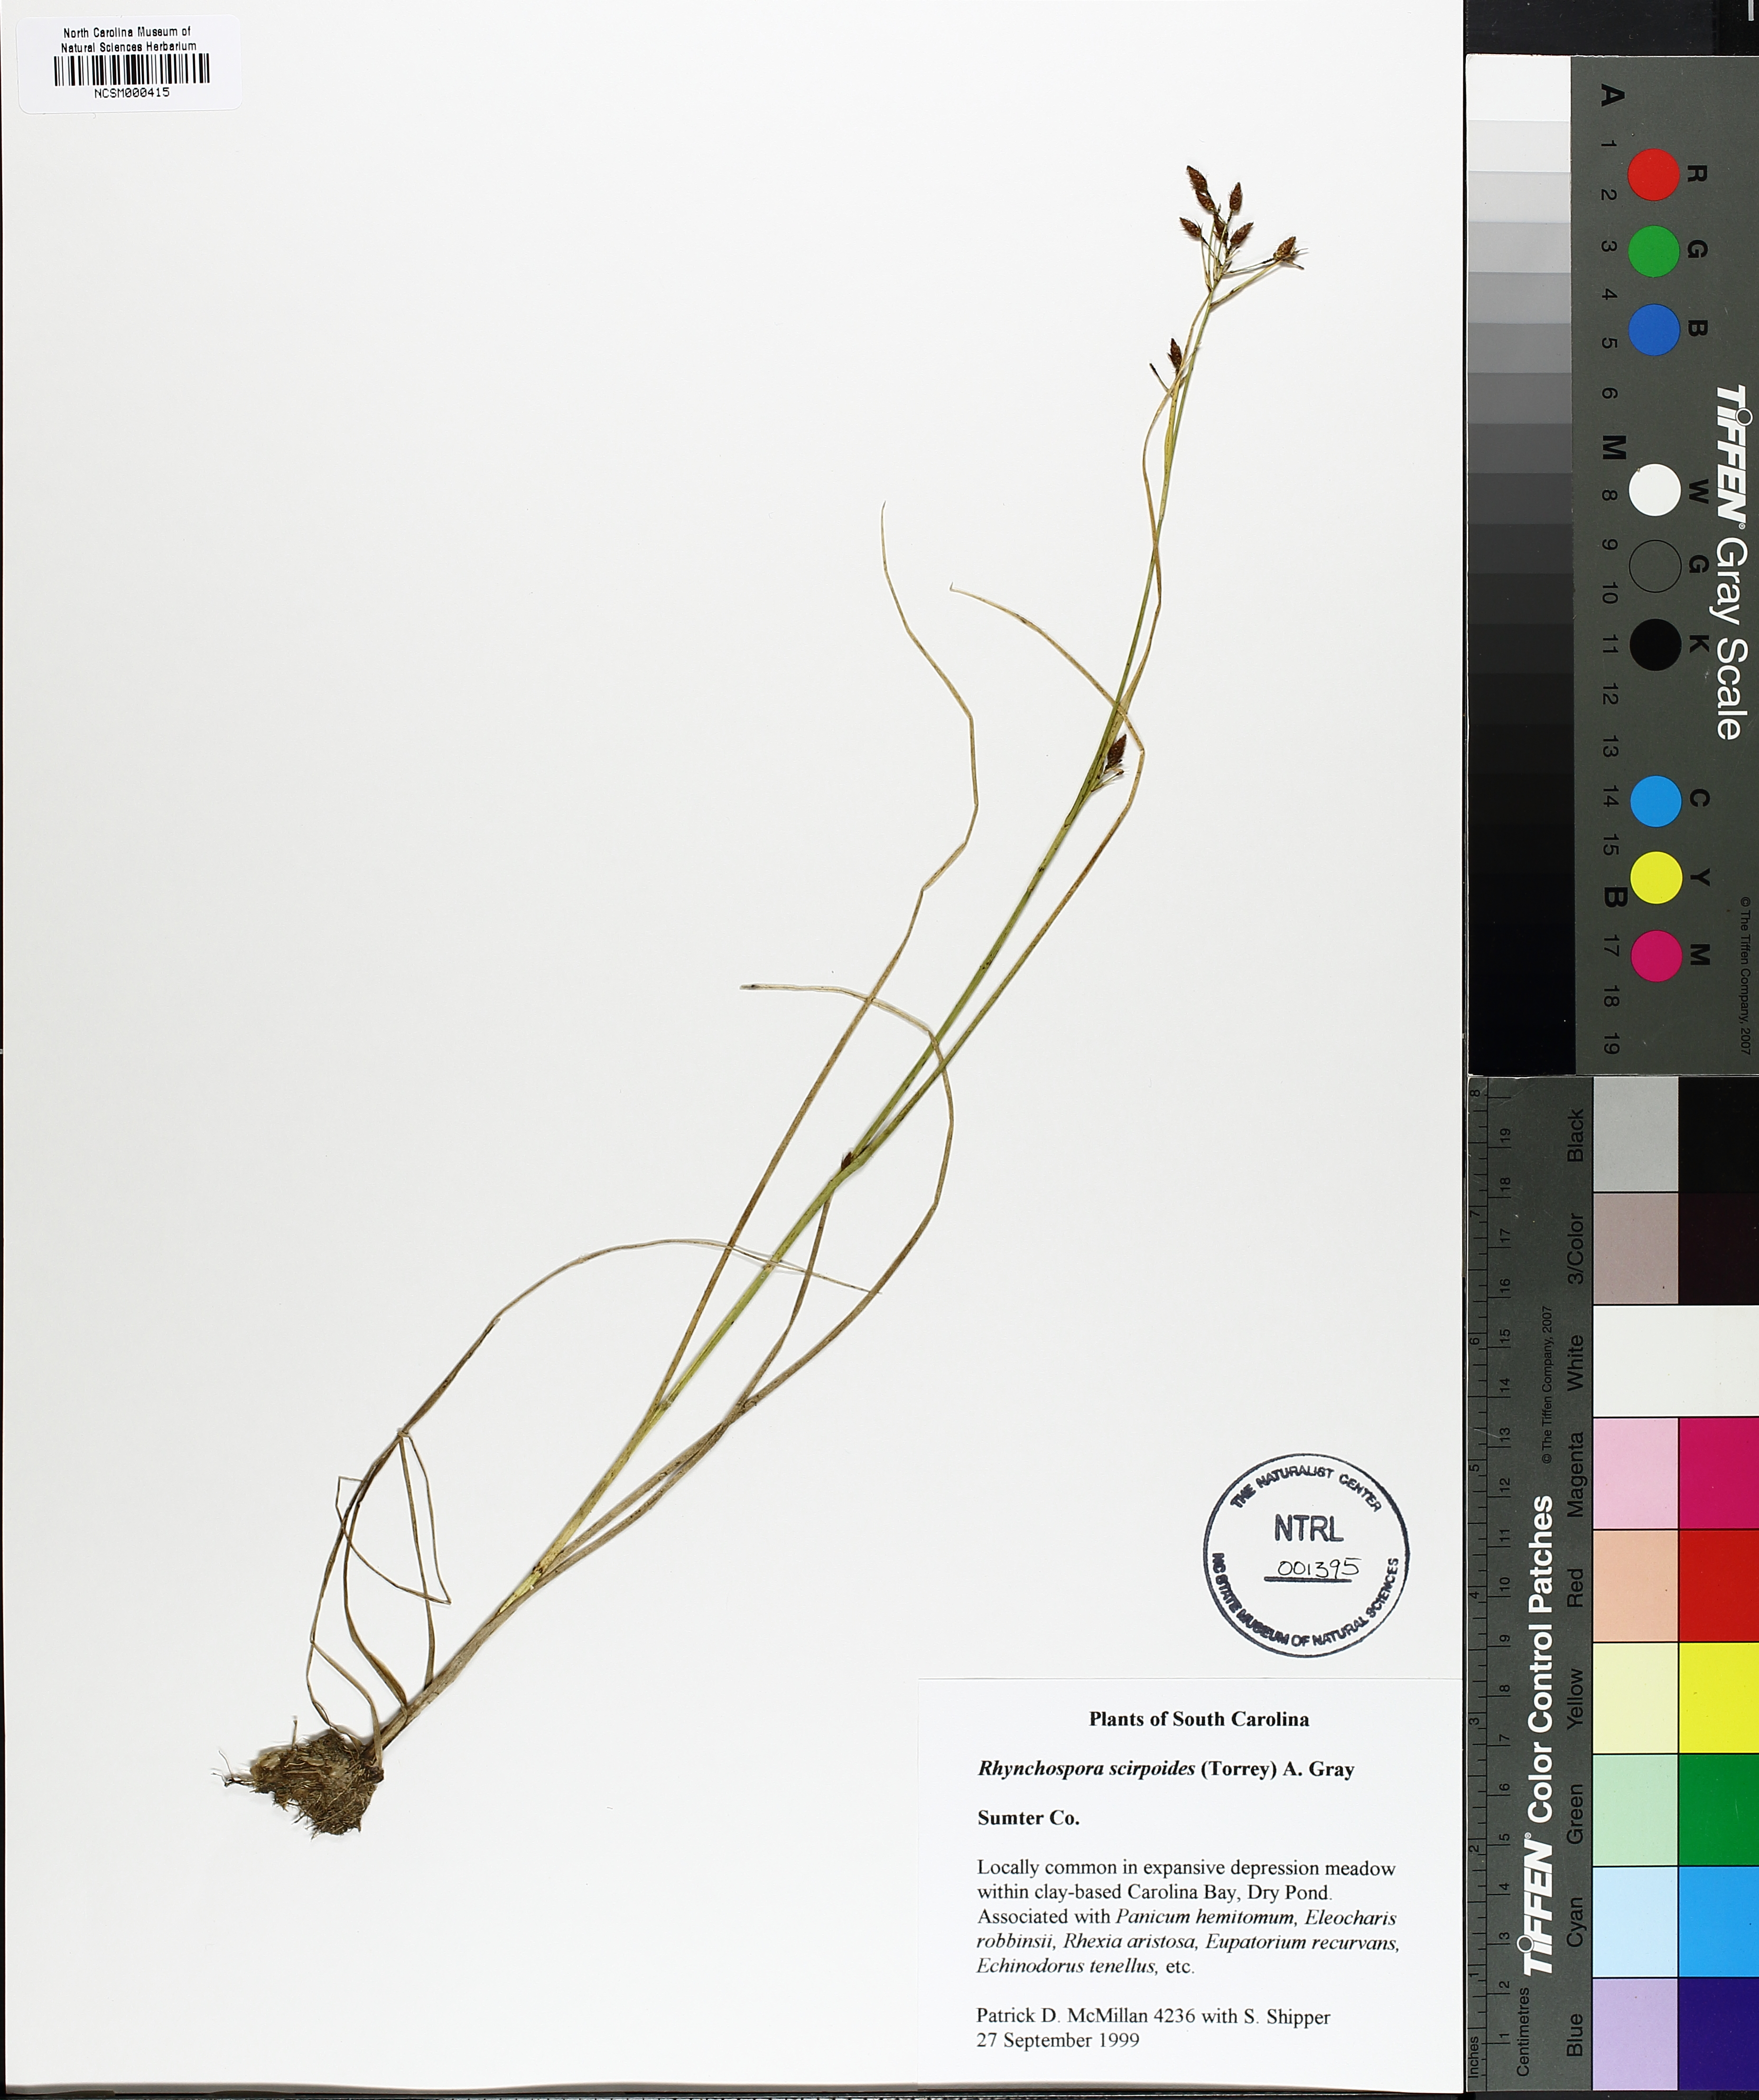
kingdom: Plantae
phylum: Tracheophyta
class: Liliopsida
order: Poales
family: Cyperaceae
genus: Rhynchospora
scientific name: Rhynchospora scirpoides
